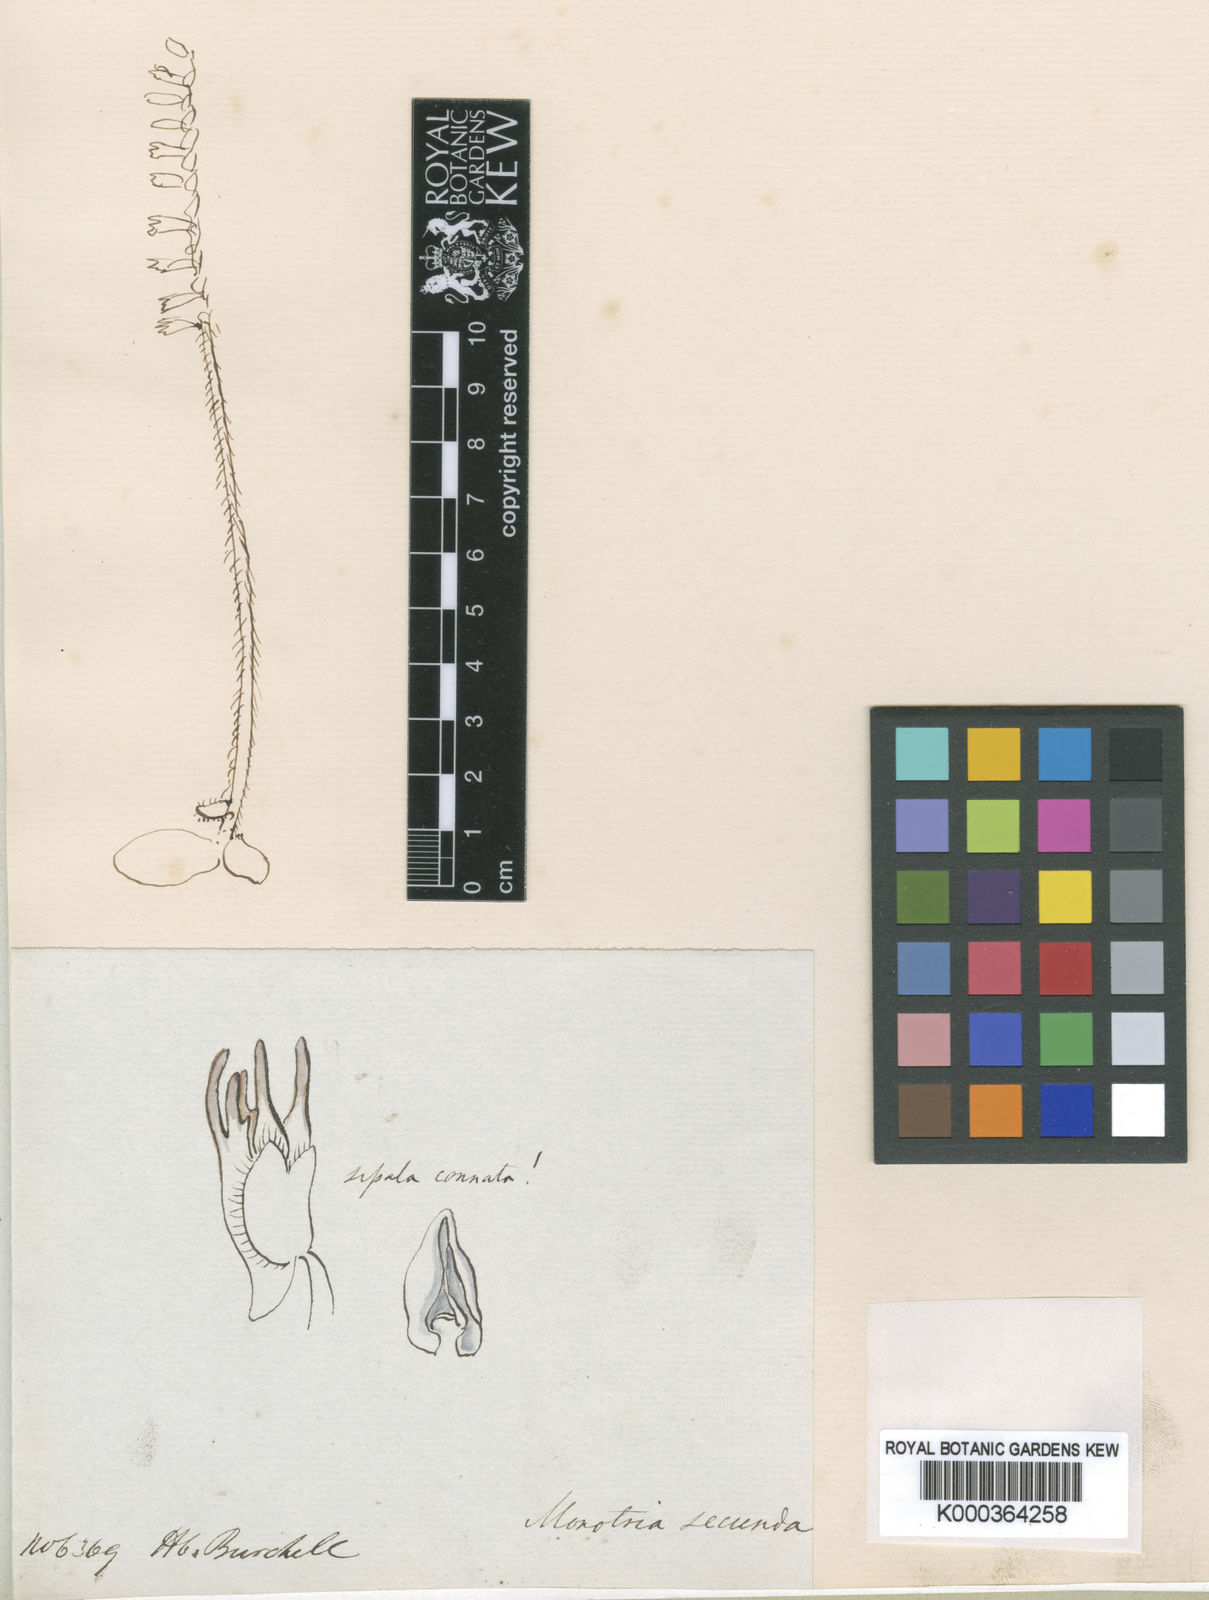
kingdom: Plantae
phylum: Tracheophyta
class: Liliopsida
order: Asparagales
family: Orchidaceae
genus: Holothrix
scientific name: Holothrix
